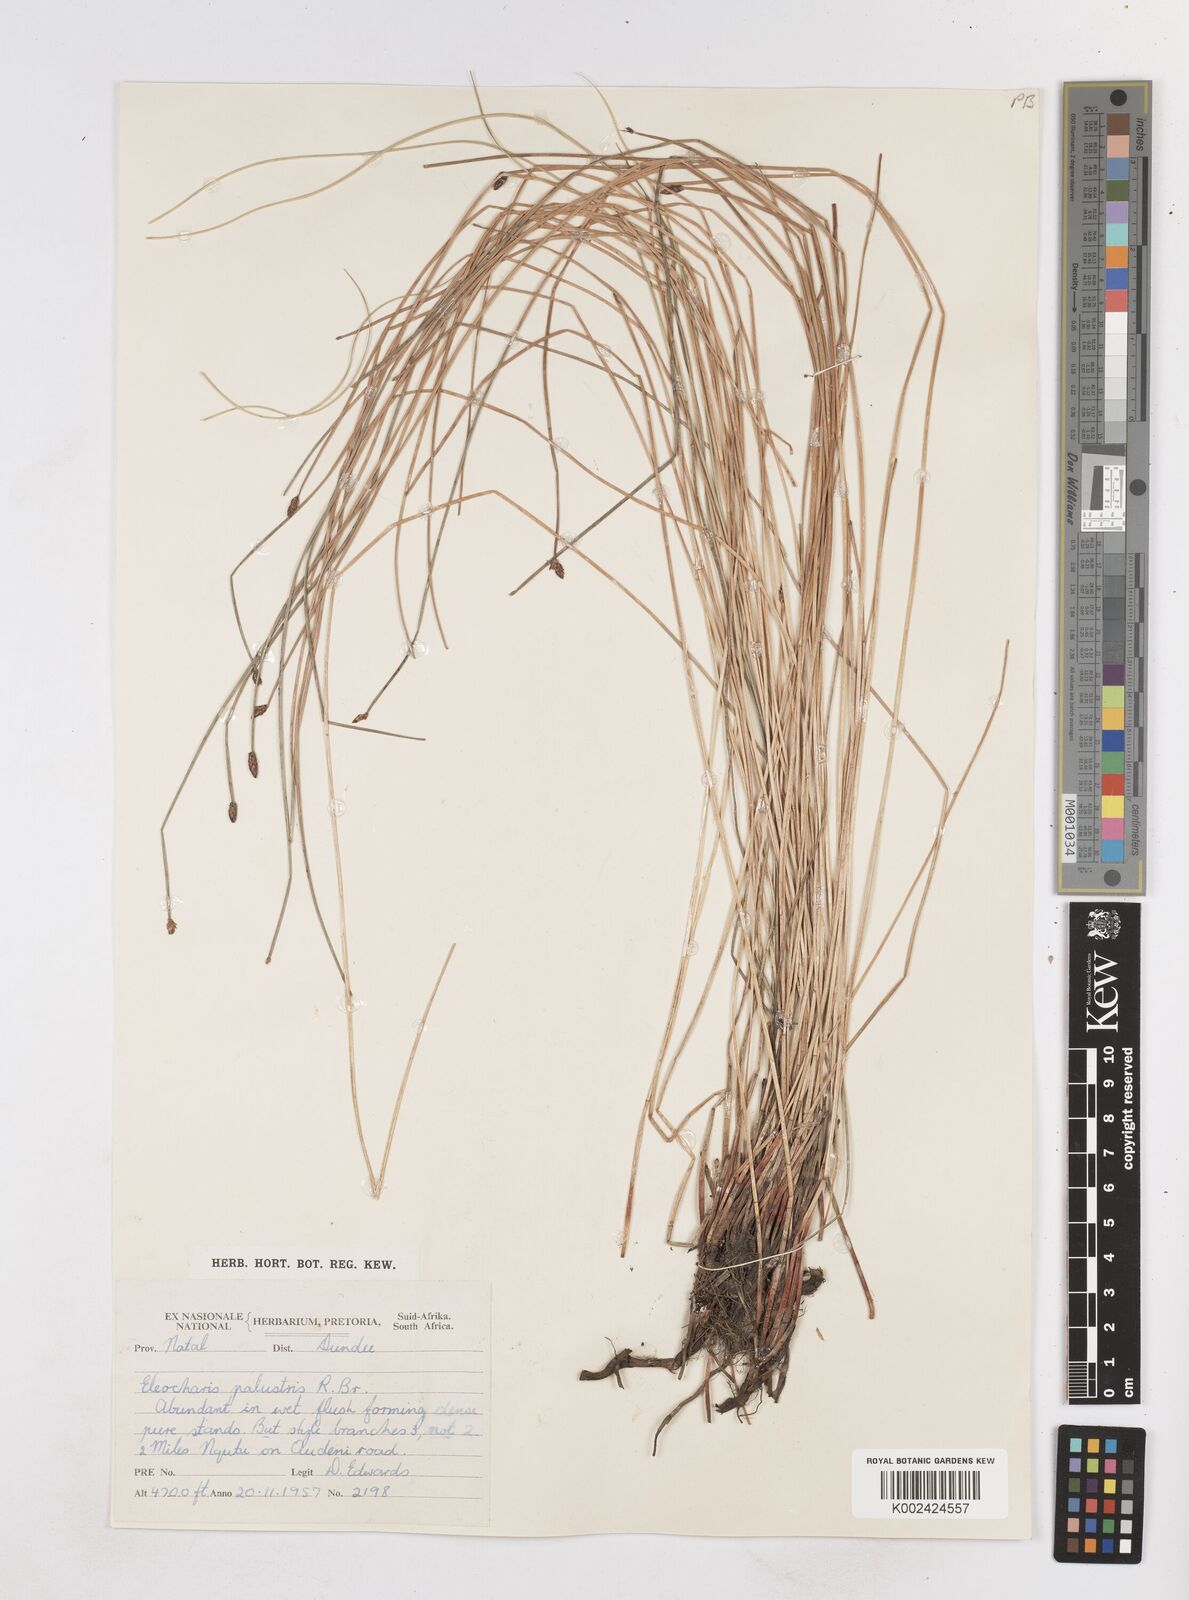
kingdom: Plantae
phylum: Tracheophyta
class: Liliopsida
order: Poales
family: Cyperaceae
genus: Eleocharis
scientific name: Eleocharis
